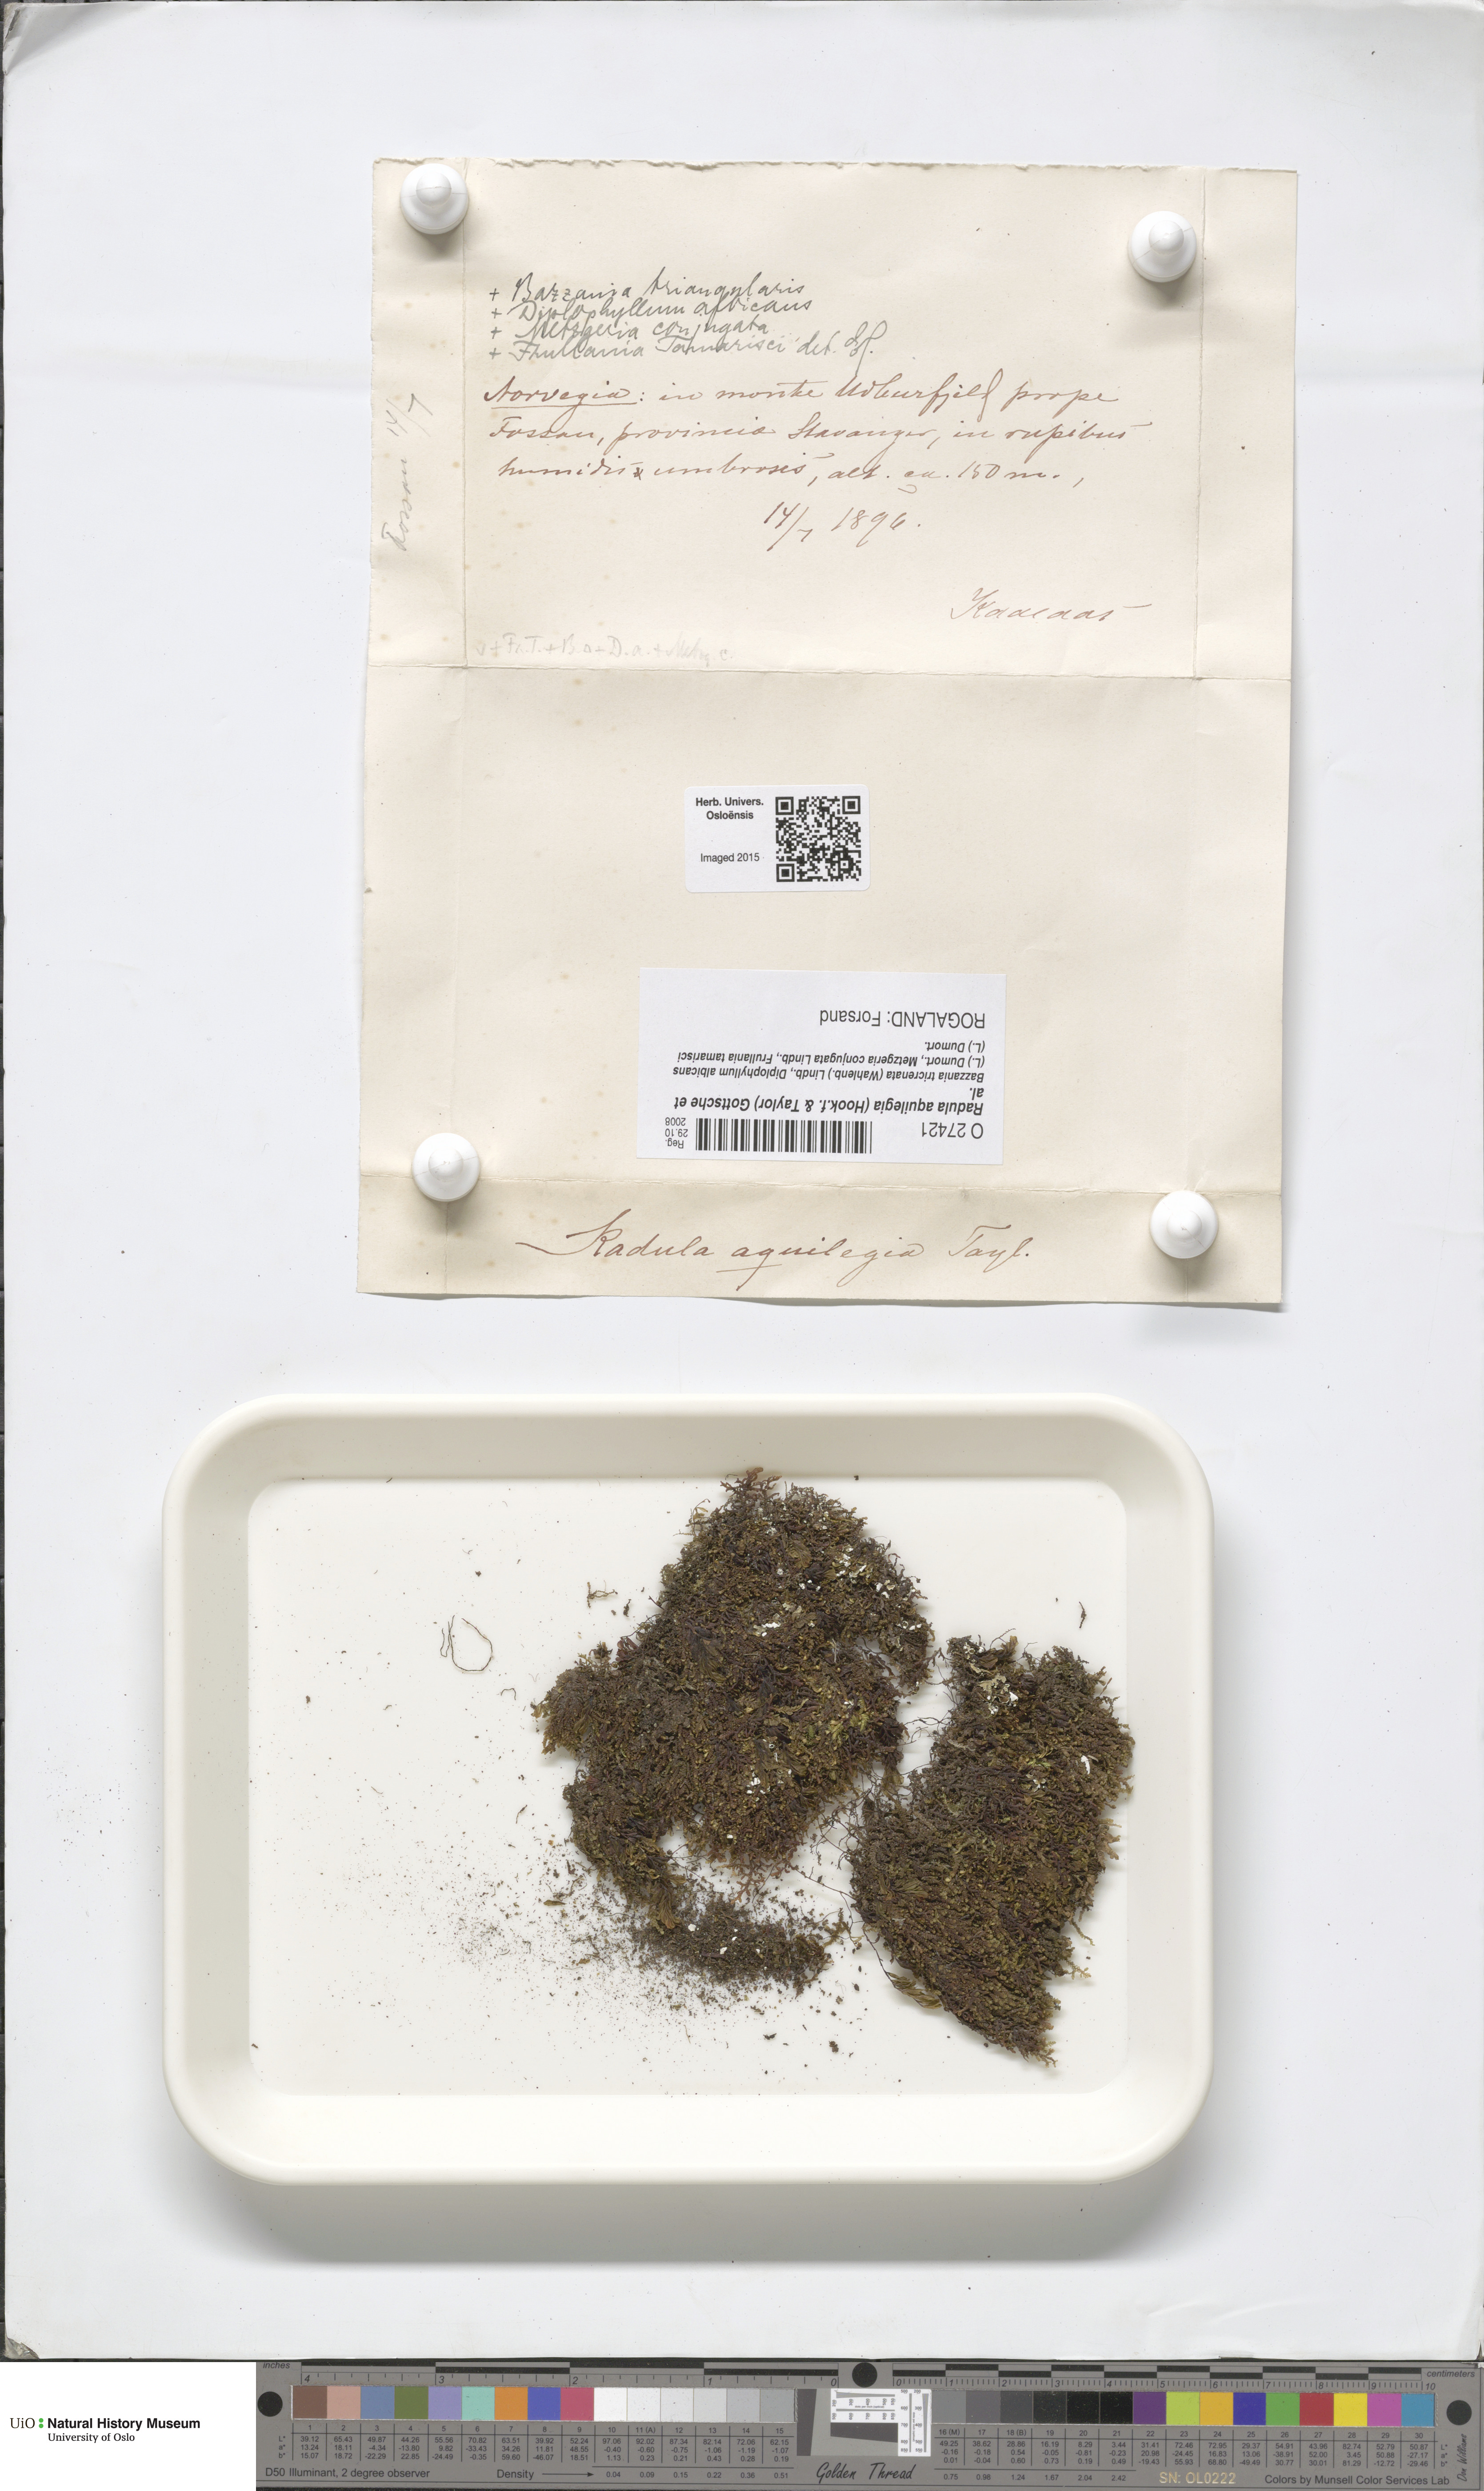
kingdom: Plantae
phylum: Marchantiophyta
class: Jungermanniopsida
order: Porellales
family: Radulaceae
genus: Radula
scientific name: Radula aquilegia
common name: Brown scalewort
